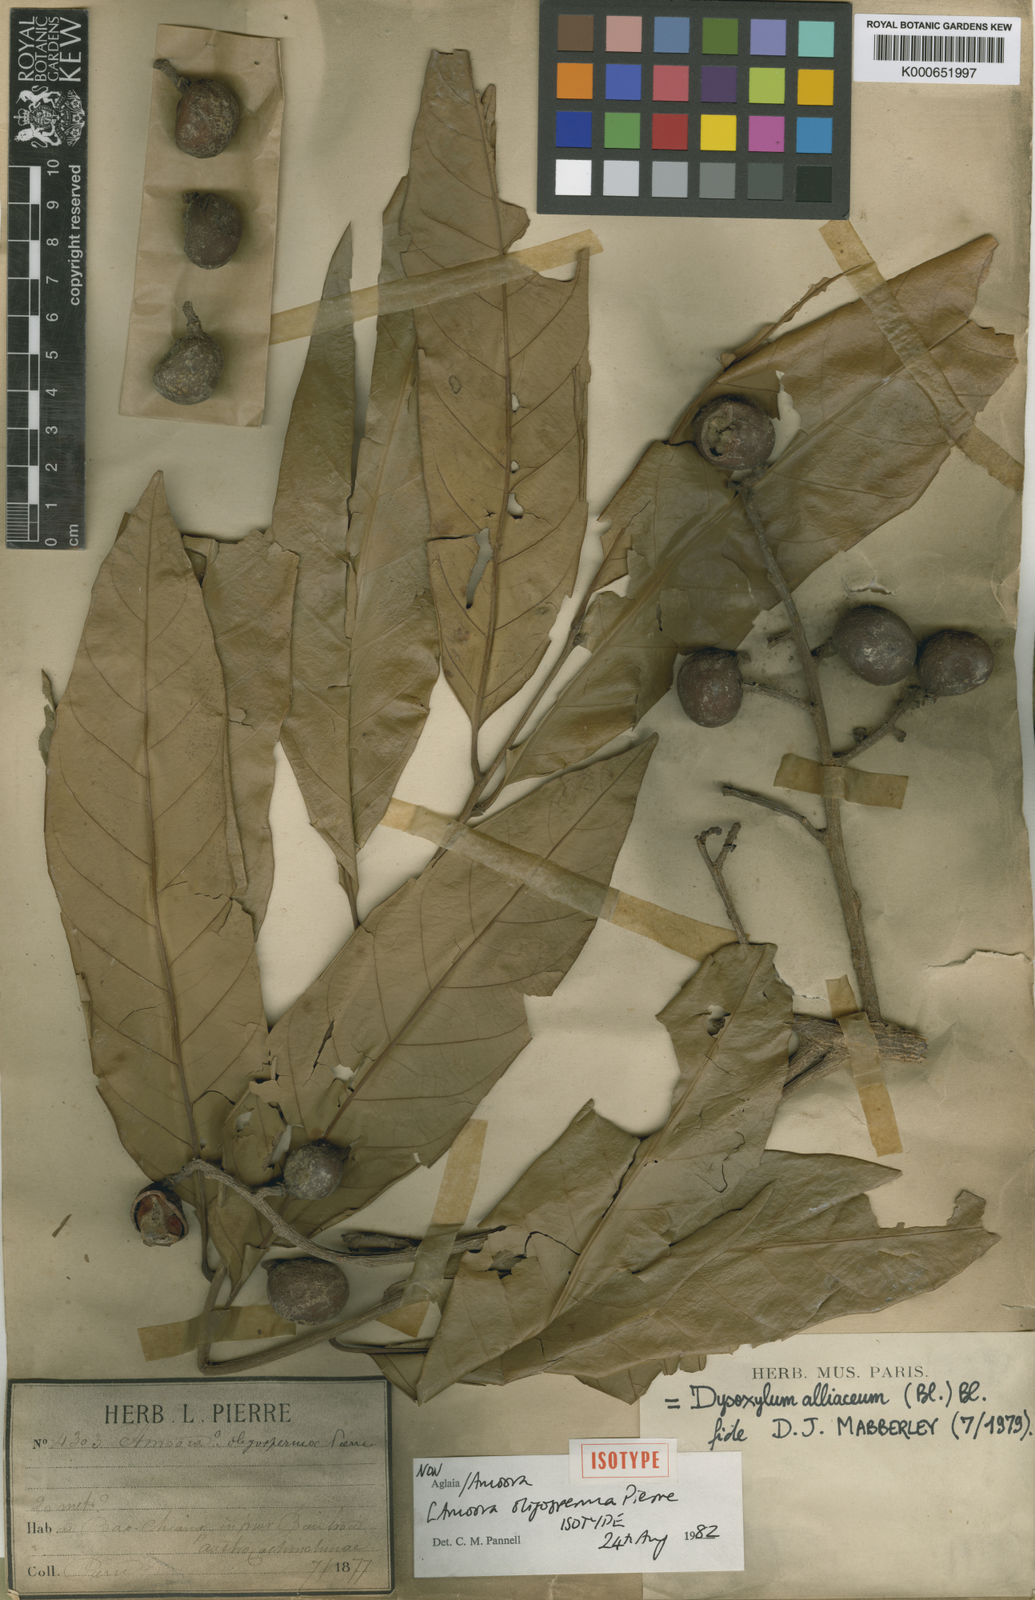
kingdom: Plantae
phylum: Tracheophyta
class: Magnoliopsida
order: Sapindales
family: Meliaceae
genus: Prasoxylon
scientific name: Prasoxylon alliaceum
